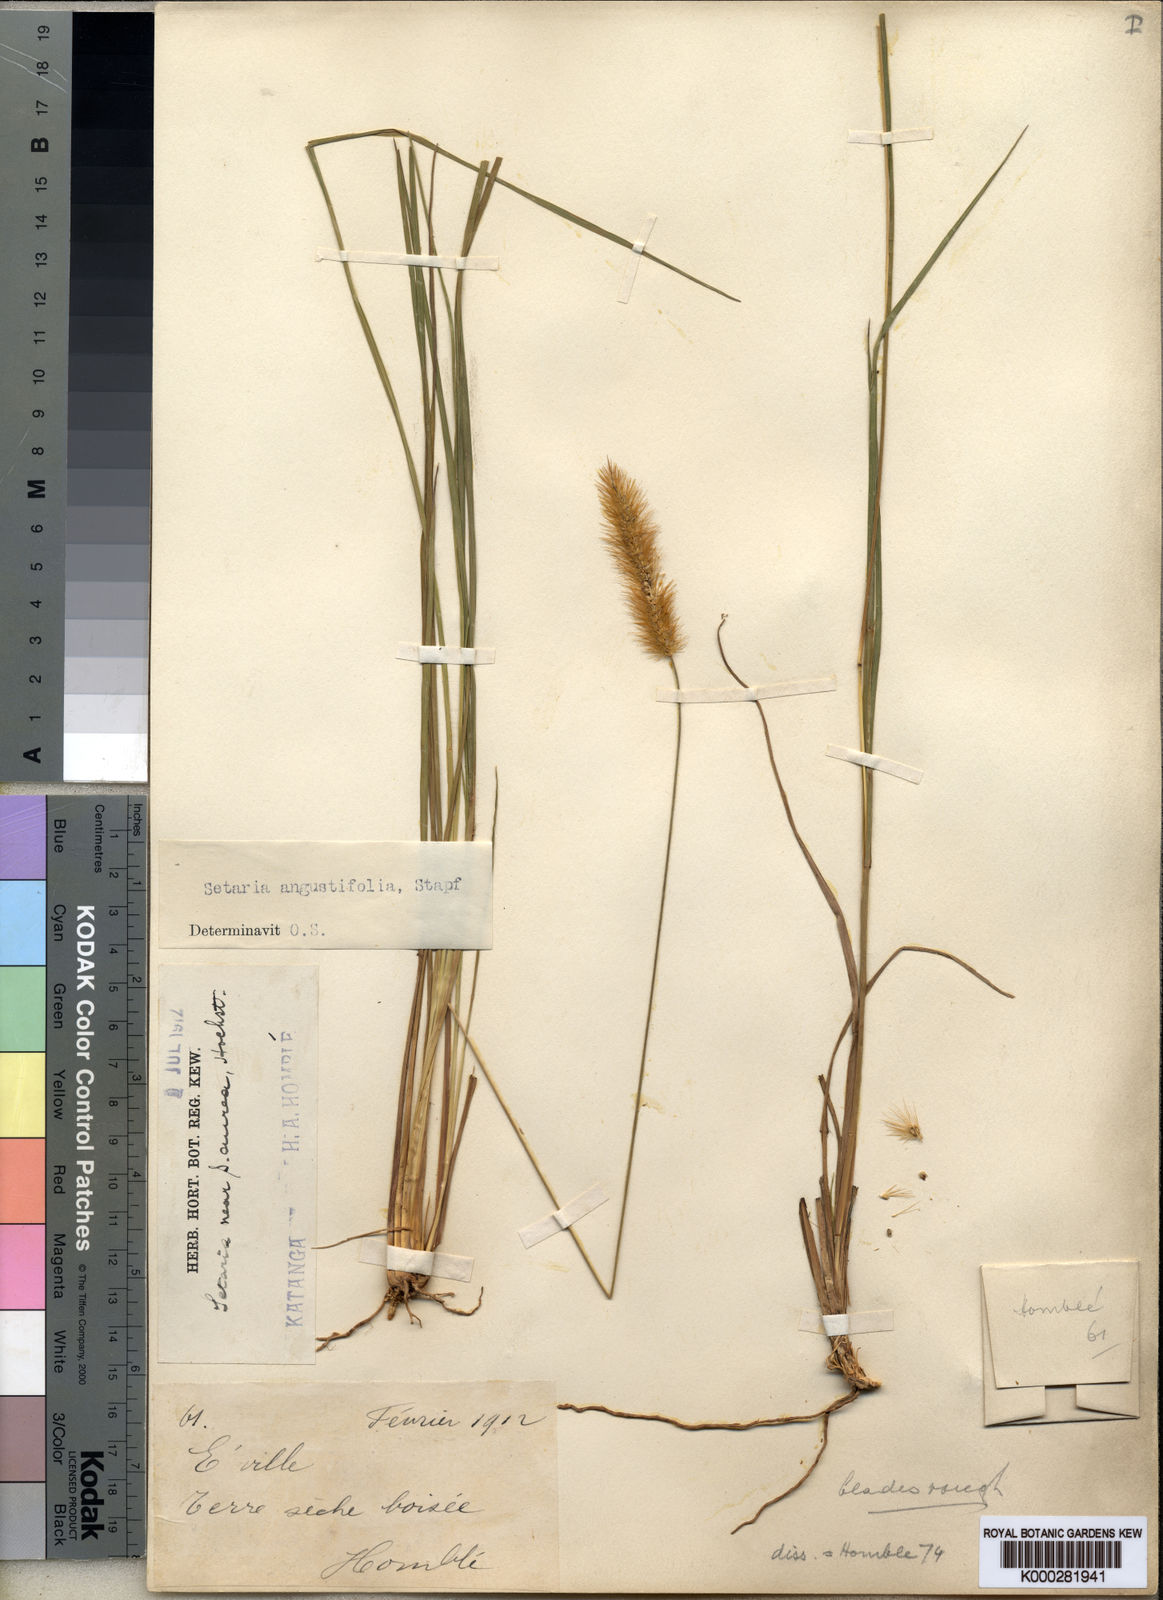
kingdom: Plantae
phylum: Tracheophyta
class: Liliopsida
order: Poales
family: Poaceae
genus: Setaria
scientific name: Setaria sphacelata
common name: African bristlegrass
